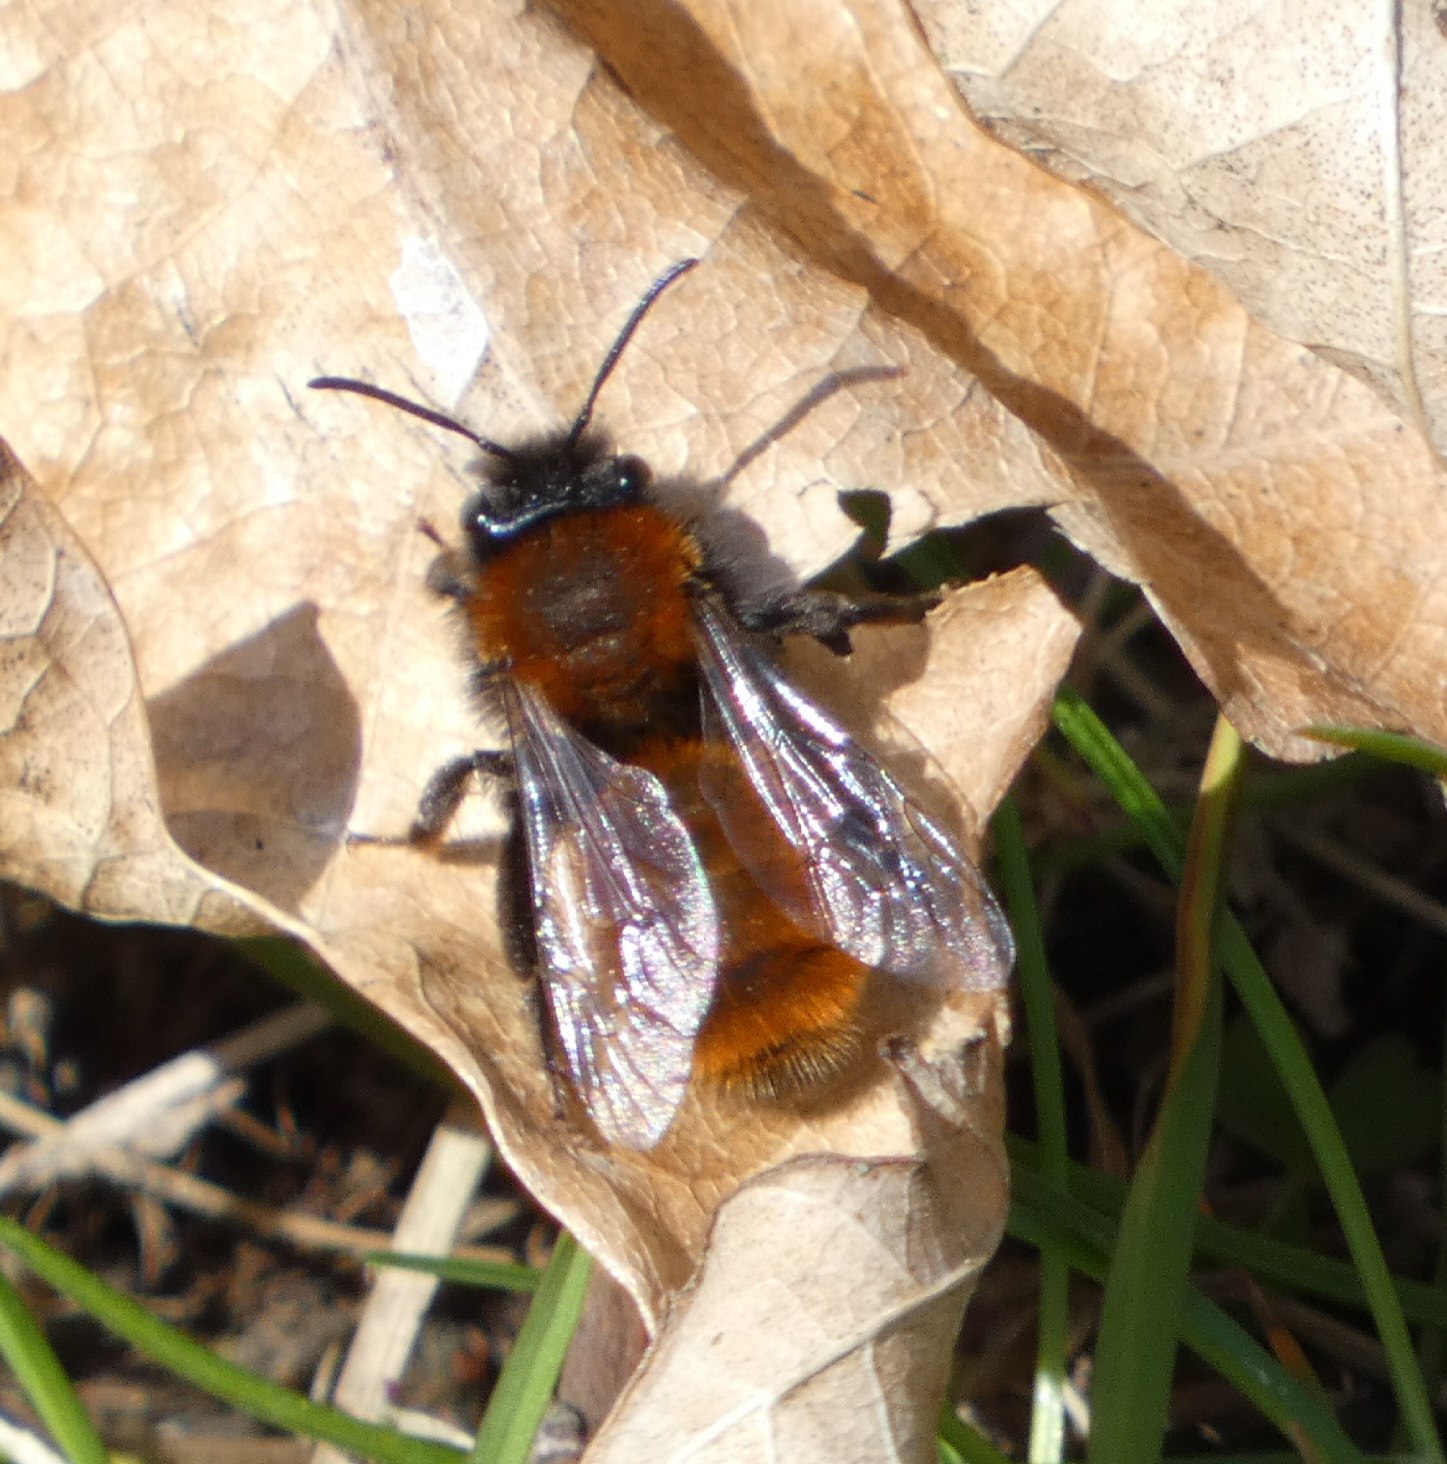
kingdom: Animalia
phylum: Arthropoda
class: Insecta
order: Hymenoptera
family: Andrenidae
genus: Andrena
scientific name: Andrena fulva
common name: Rødpelset jordbi
